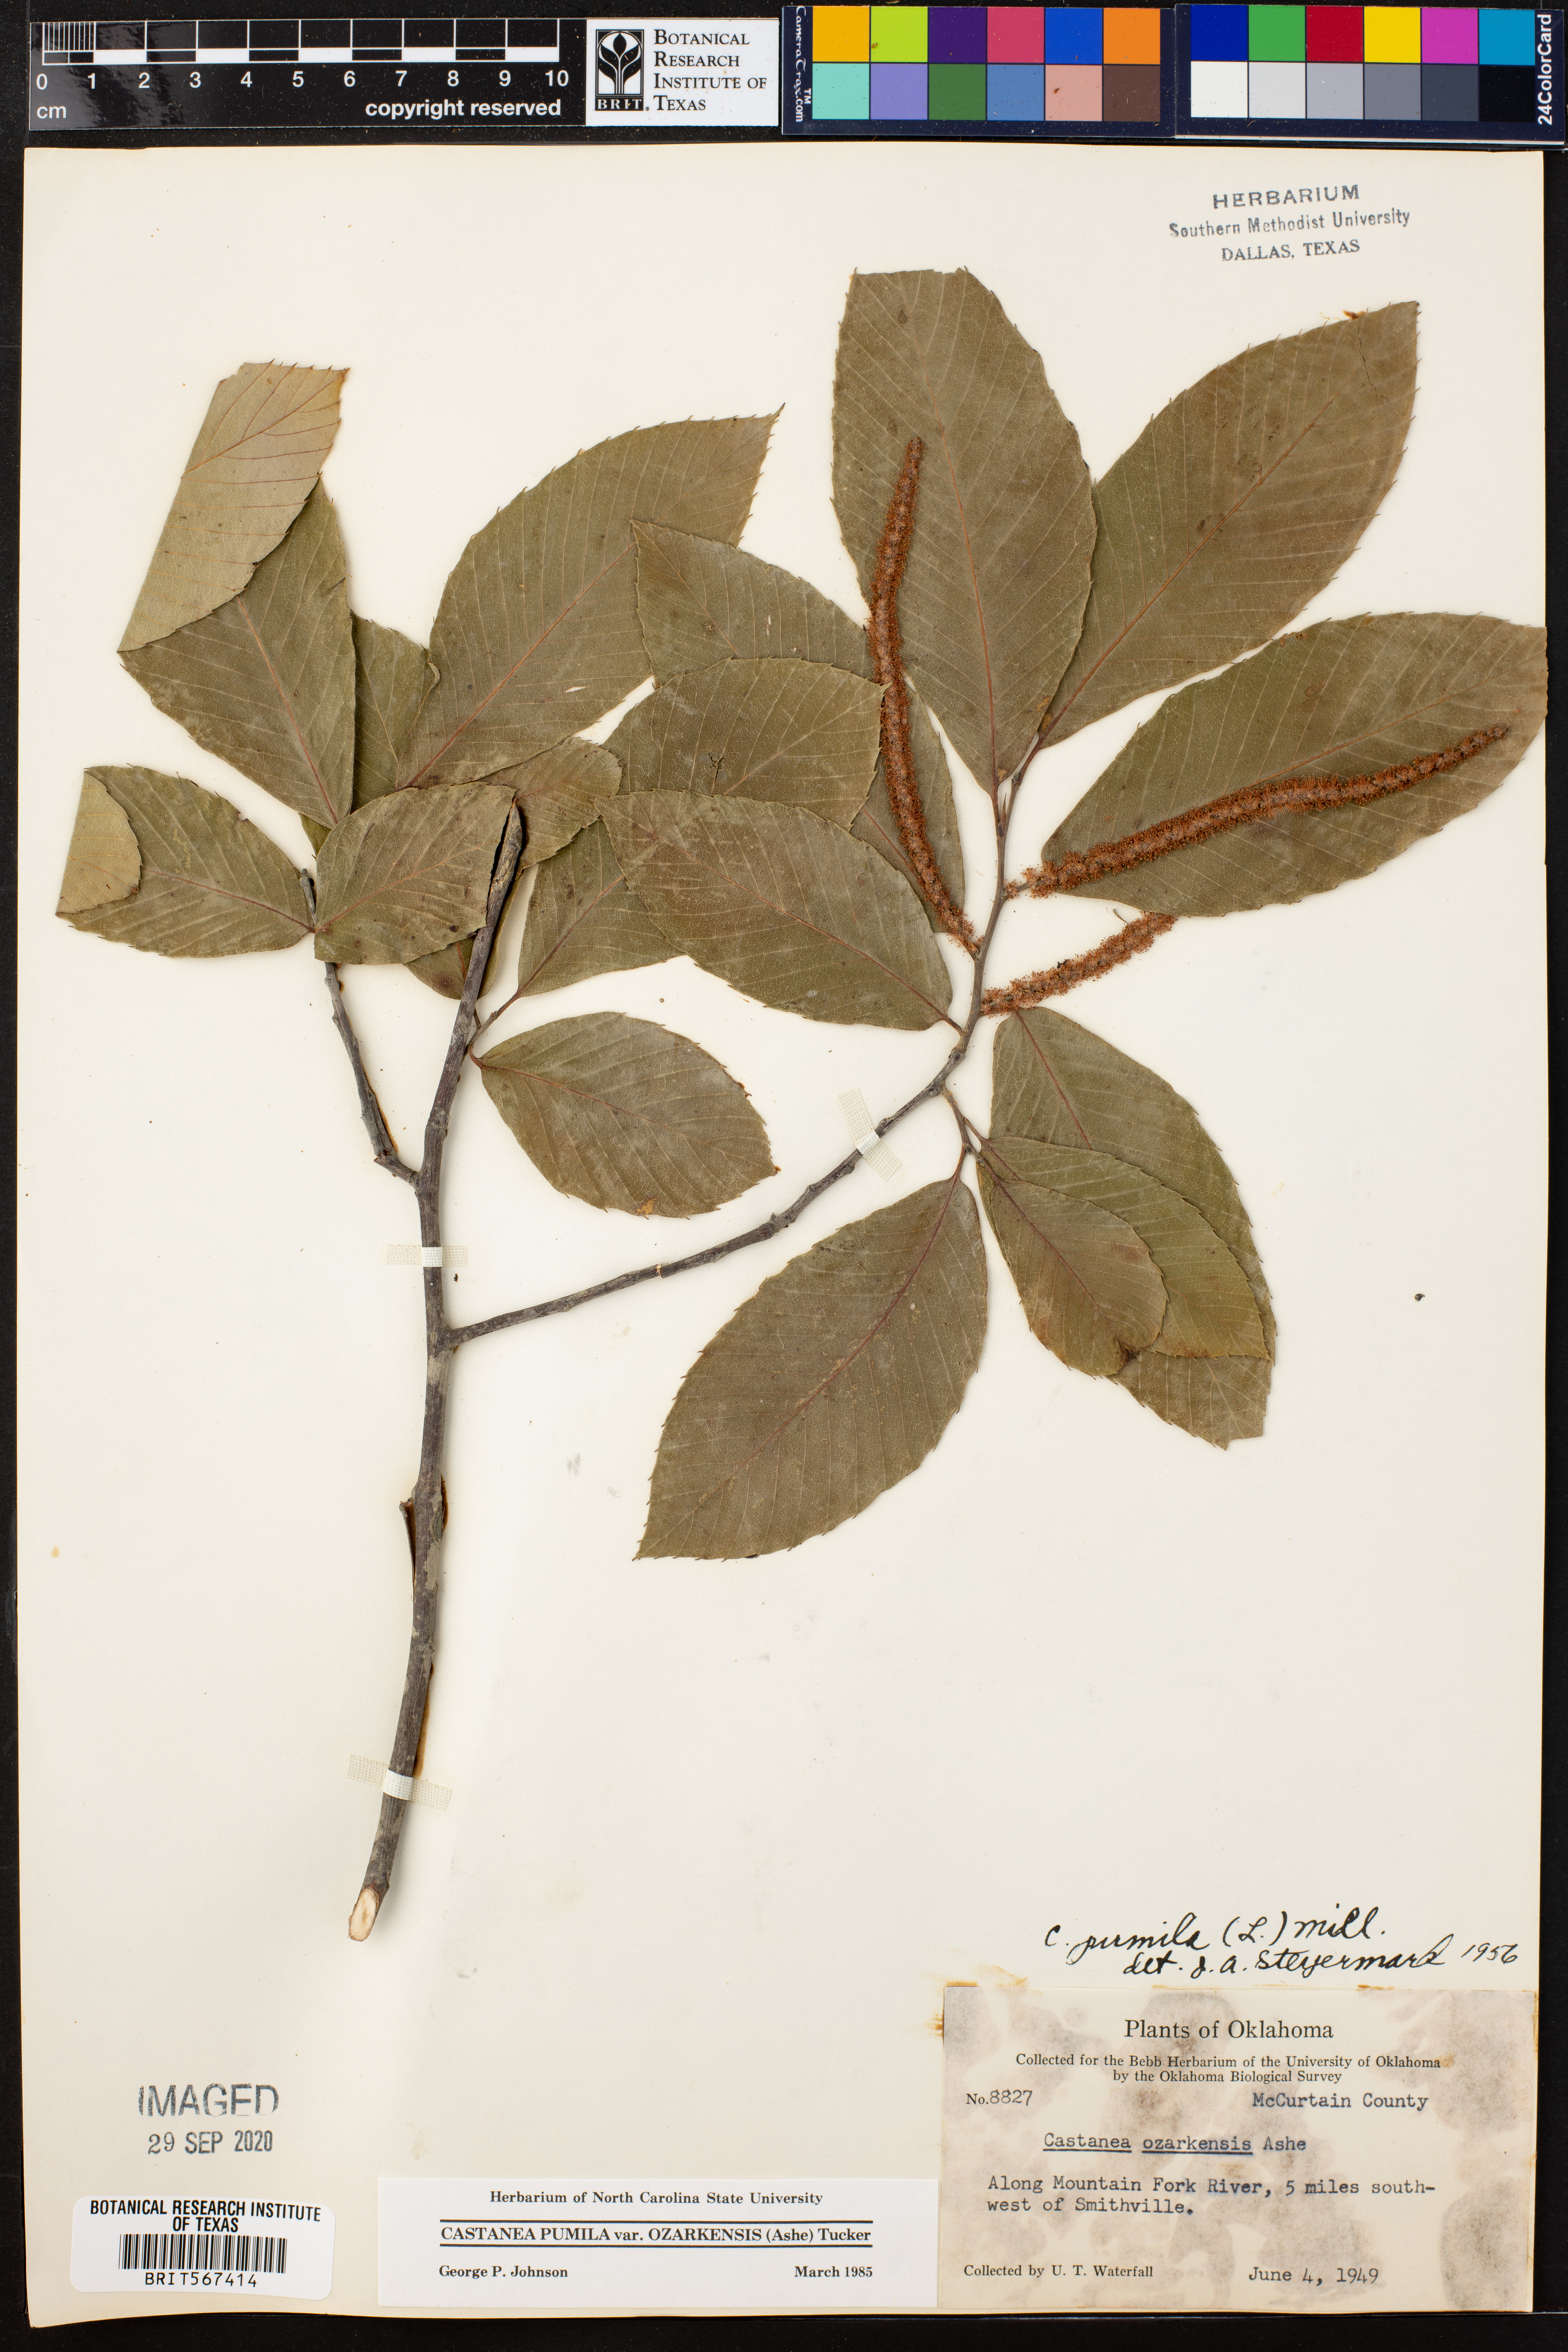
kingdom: Plantae
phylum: Tracheophyta
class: Magnoliopsida
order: Fagales
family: Fagaceae
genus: Castanea
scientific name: Castanea ozarkensis
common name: Ozark chinkapin
